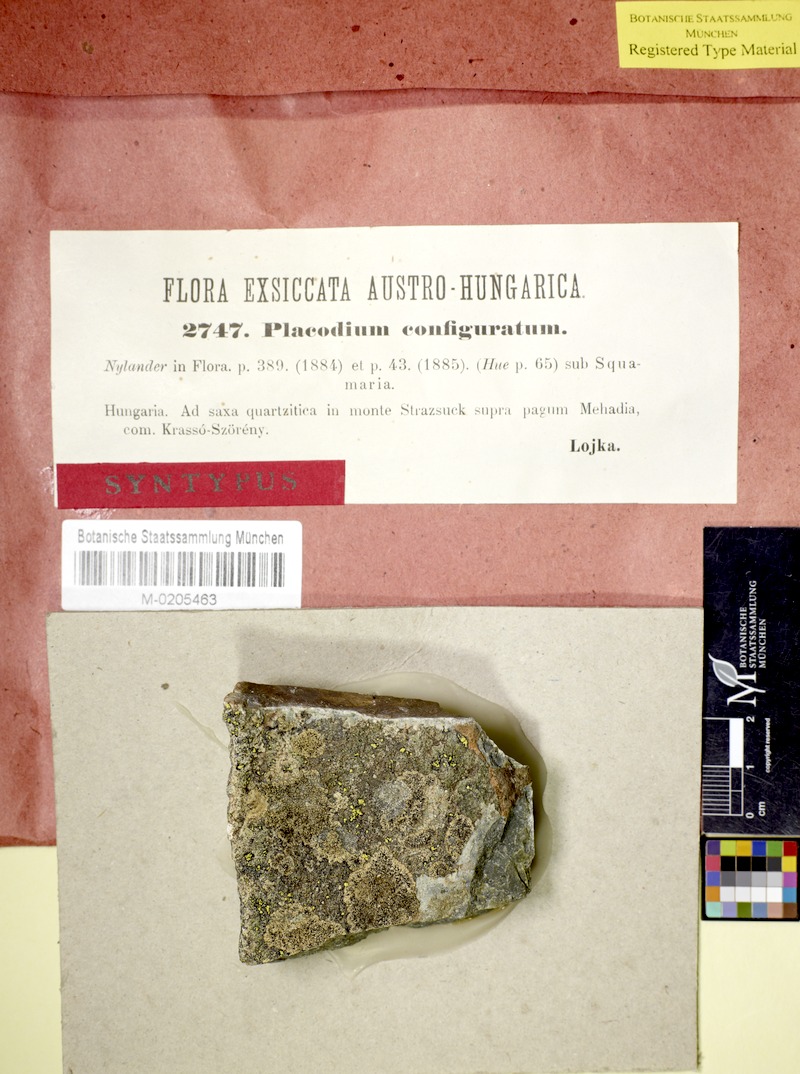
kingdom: Fungi
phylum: Ascomycota
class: Lecanoromycetes
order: Lecanorales
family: Lecanoraceae
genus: Lecanora
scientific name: Lecanora configurata
